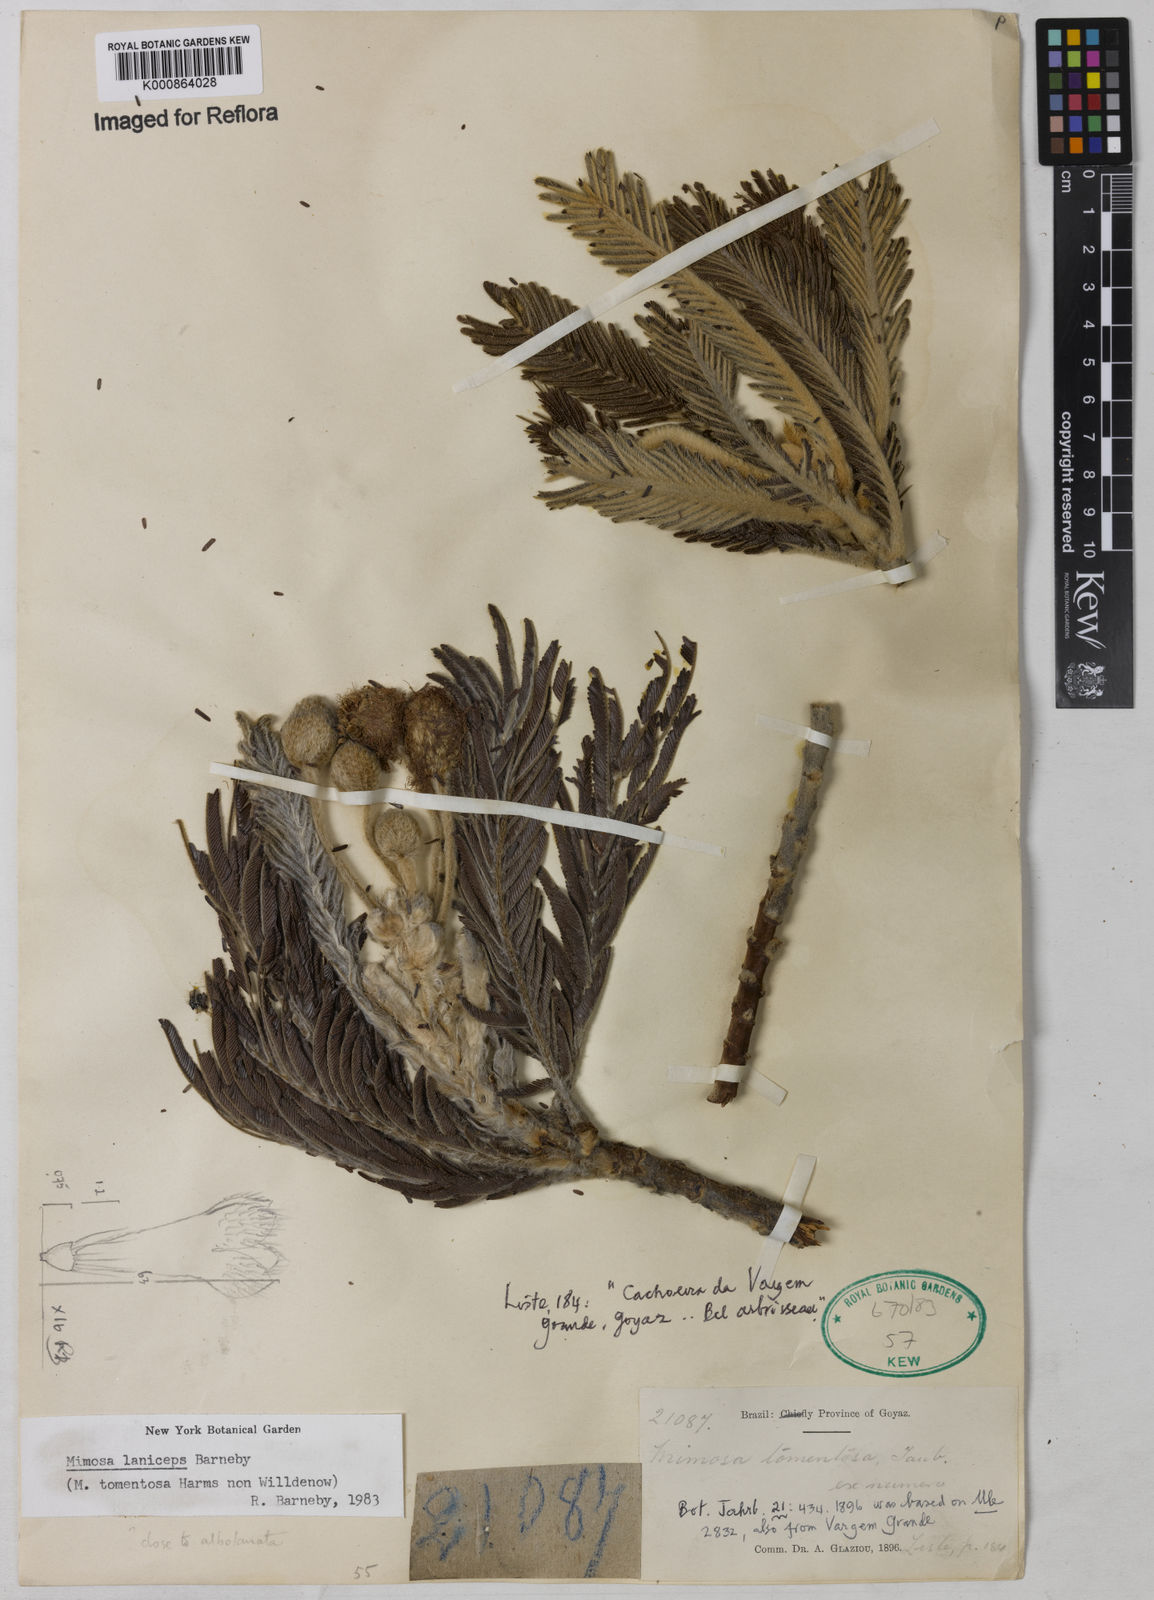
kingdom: Plantae
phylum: Tracheophyta
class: Magnoliopsida
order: Fabales
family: Fabaceae
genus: Mimosa
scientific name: Mimosa laniceps
